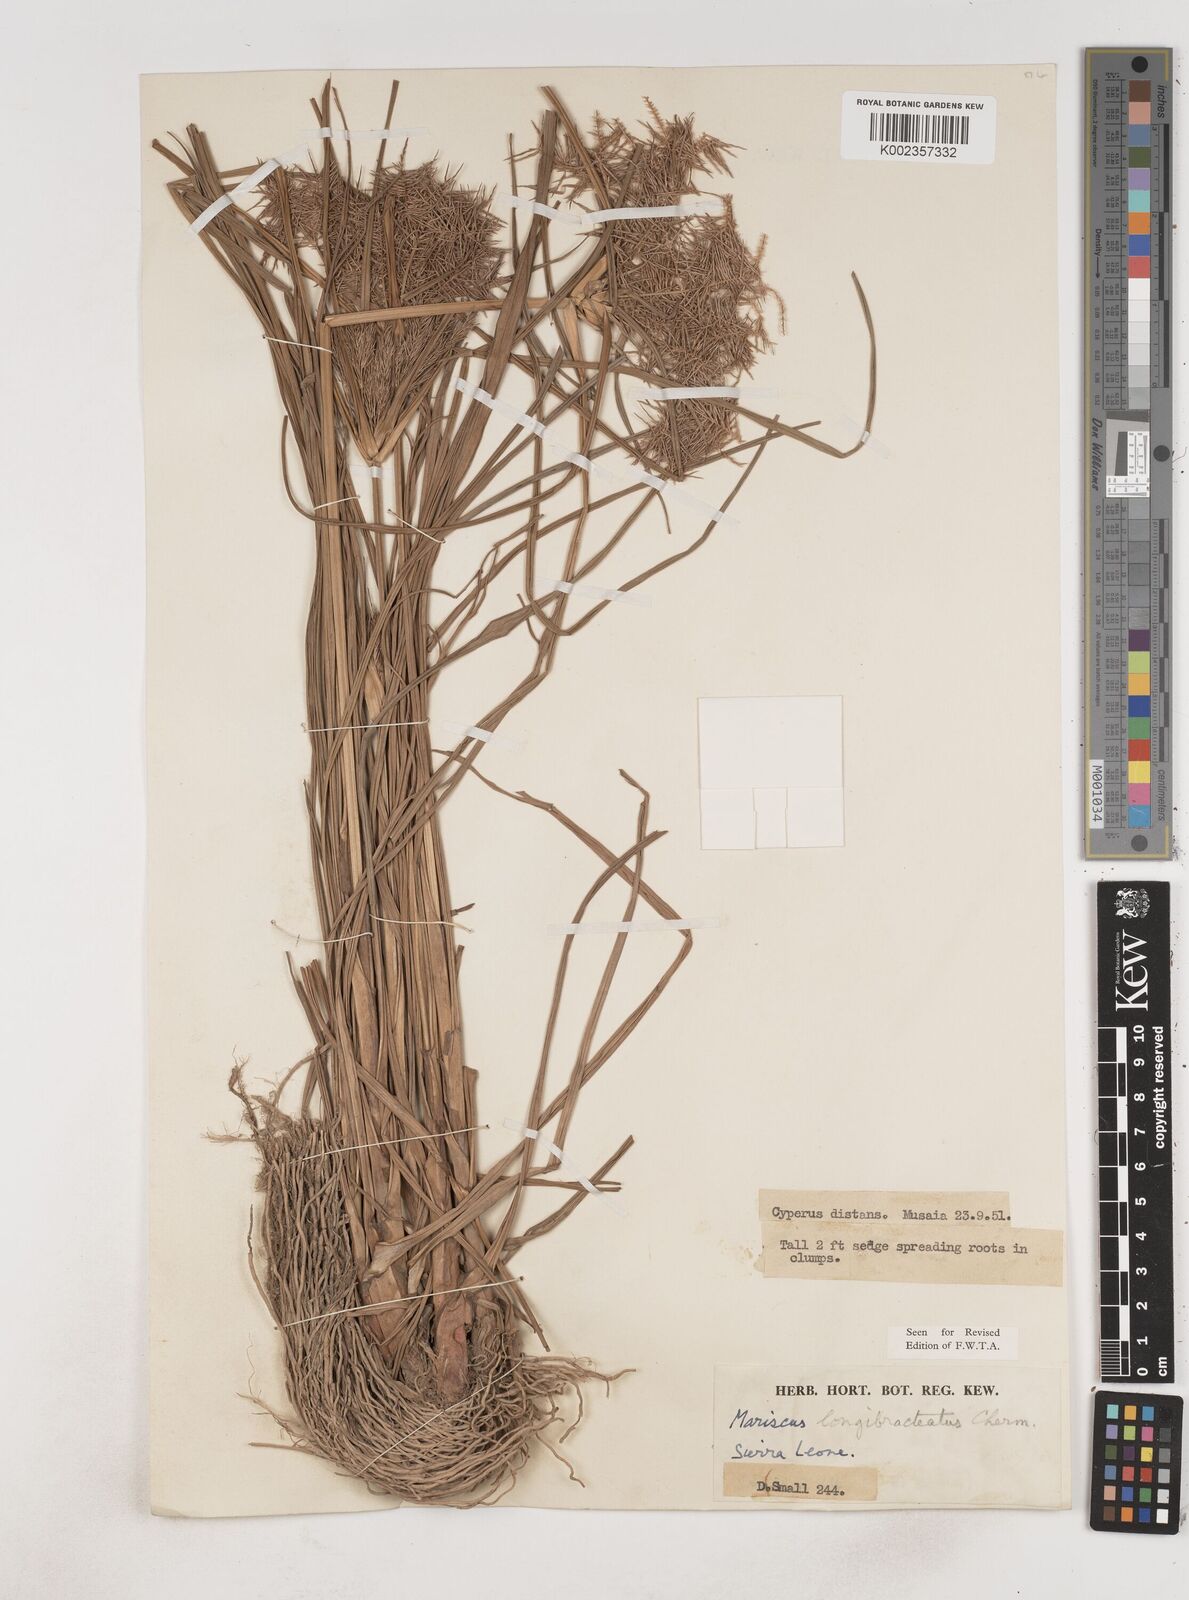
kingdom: Plantae
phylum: Tracheophyta
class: Liliopsida
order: Poales
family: Cyperaceae
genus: Cyperus
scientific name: Cyperus distans
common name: Slender cyperus
